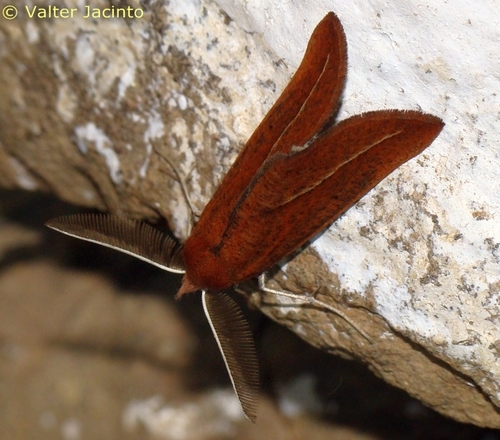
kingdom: Animalia
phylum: Arthropoda
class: Insecta
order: Lepidoptera
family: Geometridae
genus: Compsoptera
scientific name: Compsoptera opacaria
